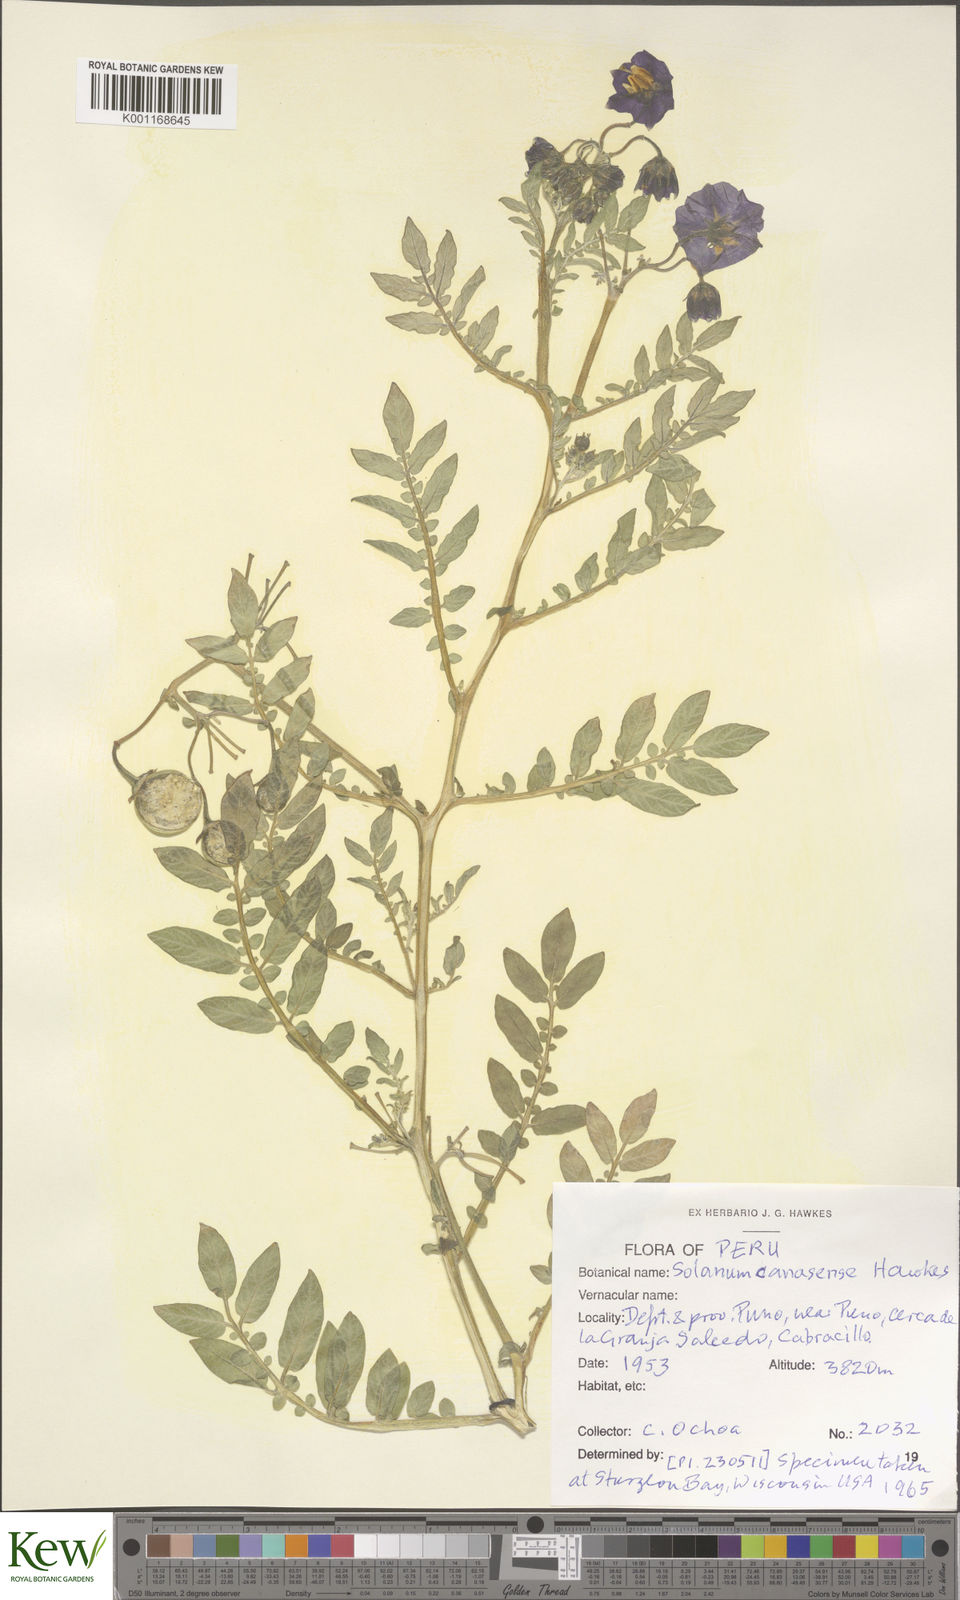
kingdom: Plantae
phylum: Tracheophyta
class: Magnoliopsida
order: Solanales
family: Solanaceae
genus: Solanum
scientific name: Solanum candolleanum
